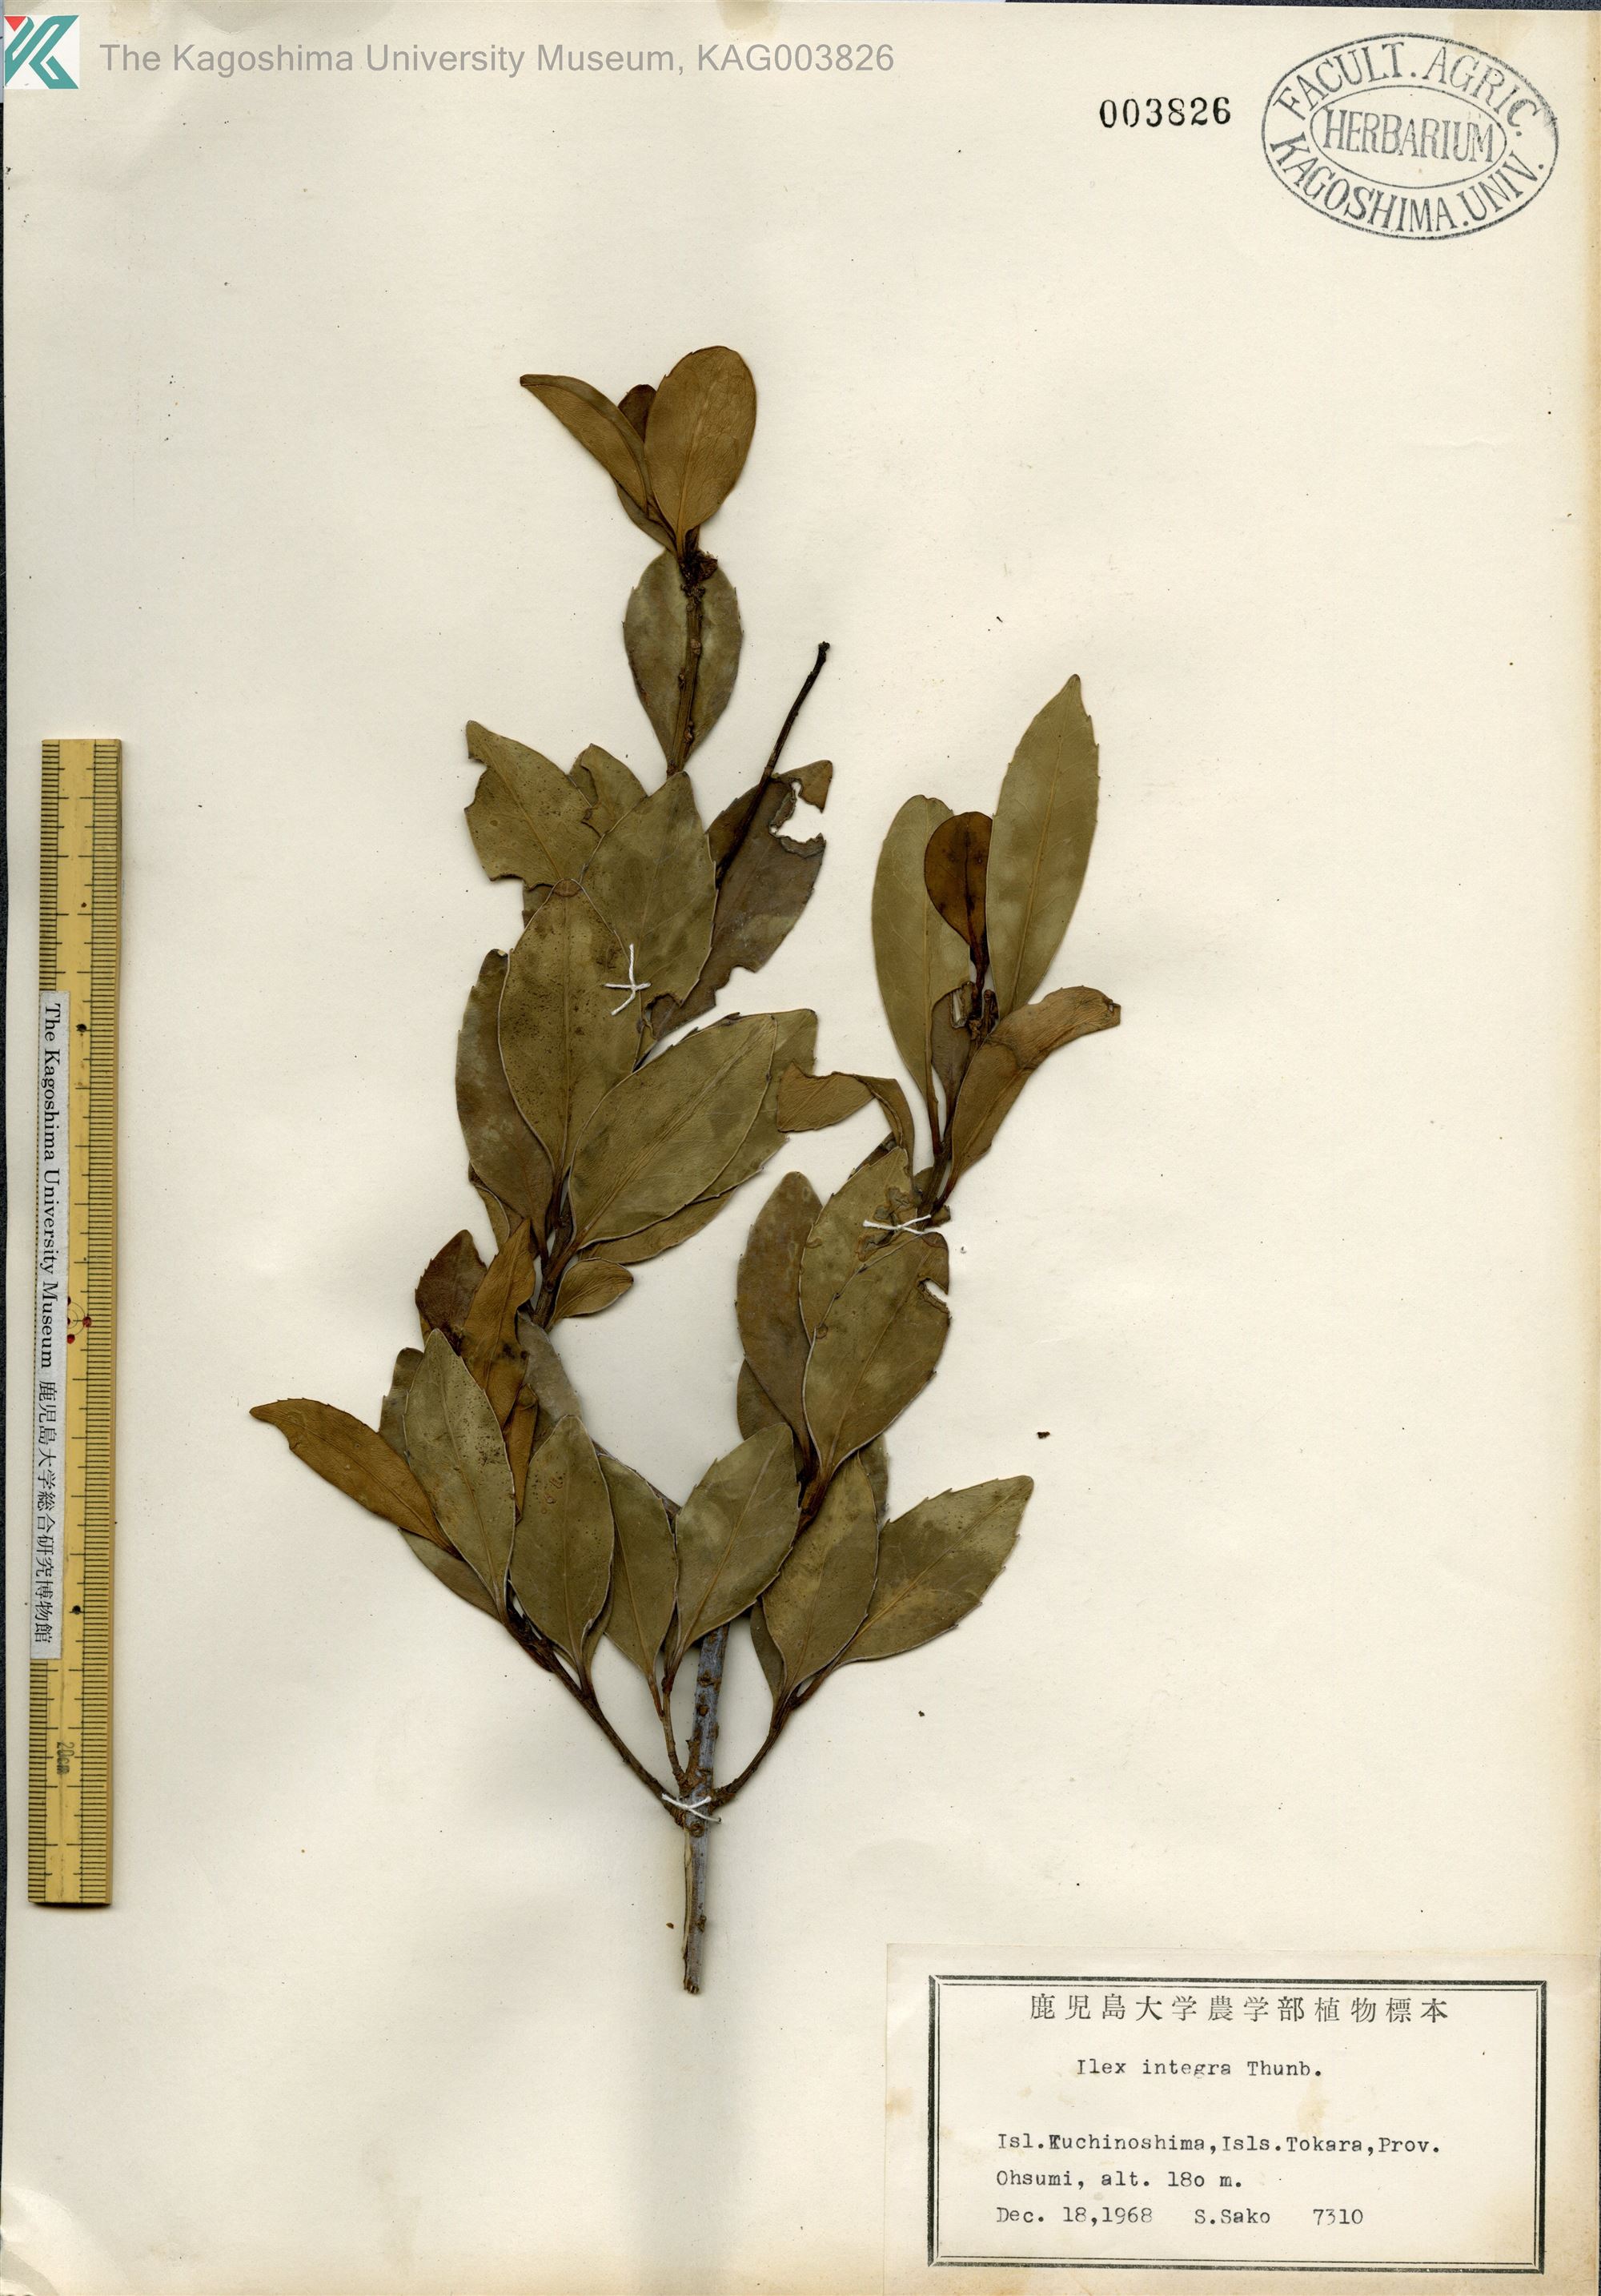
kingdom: Plantae
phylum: Tracheophyta
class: Magnoliopsida
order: Aquifoliales
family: Aquifoliaceae
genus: Ilex
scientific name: Ilex integra
